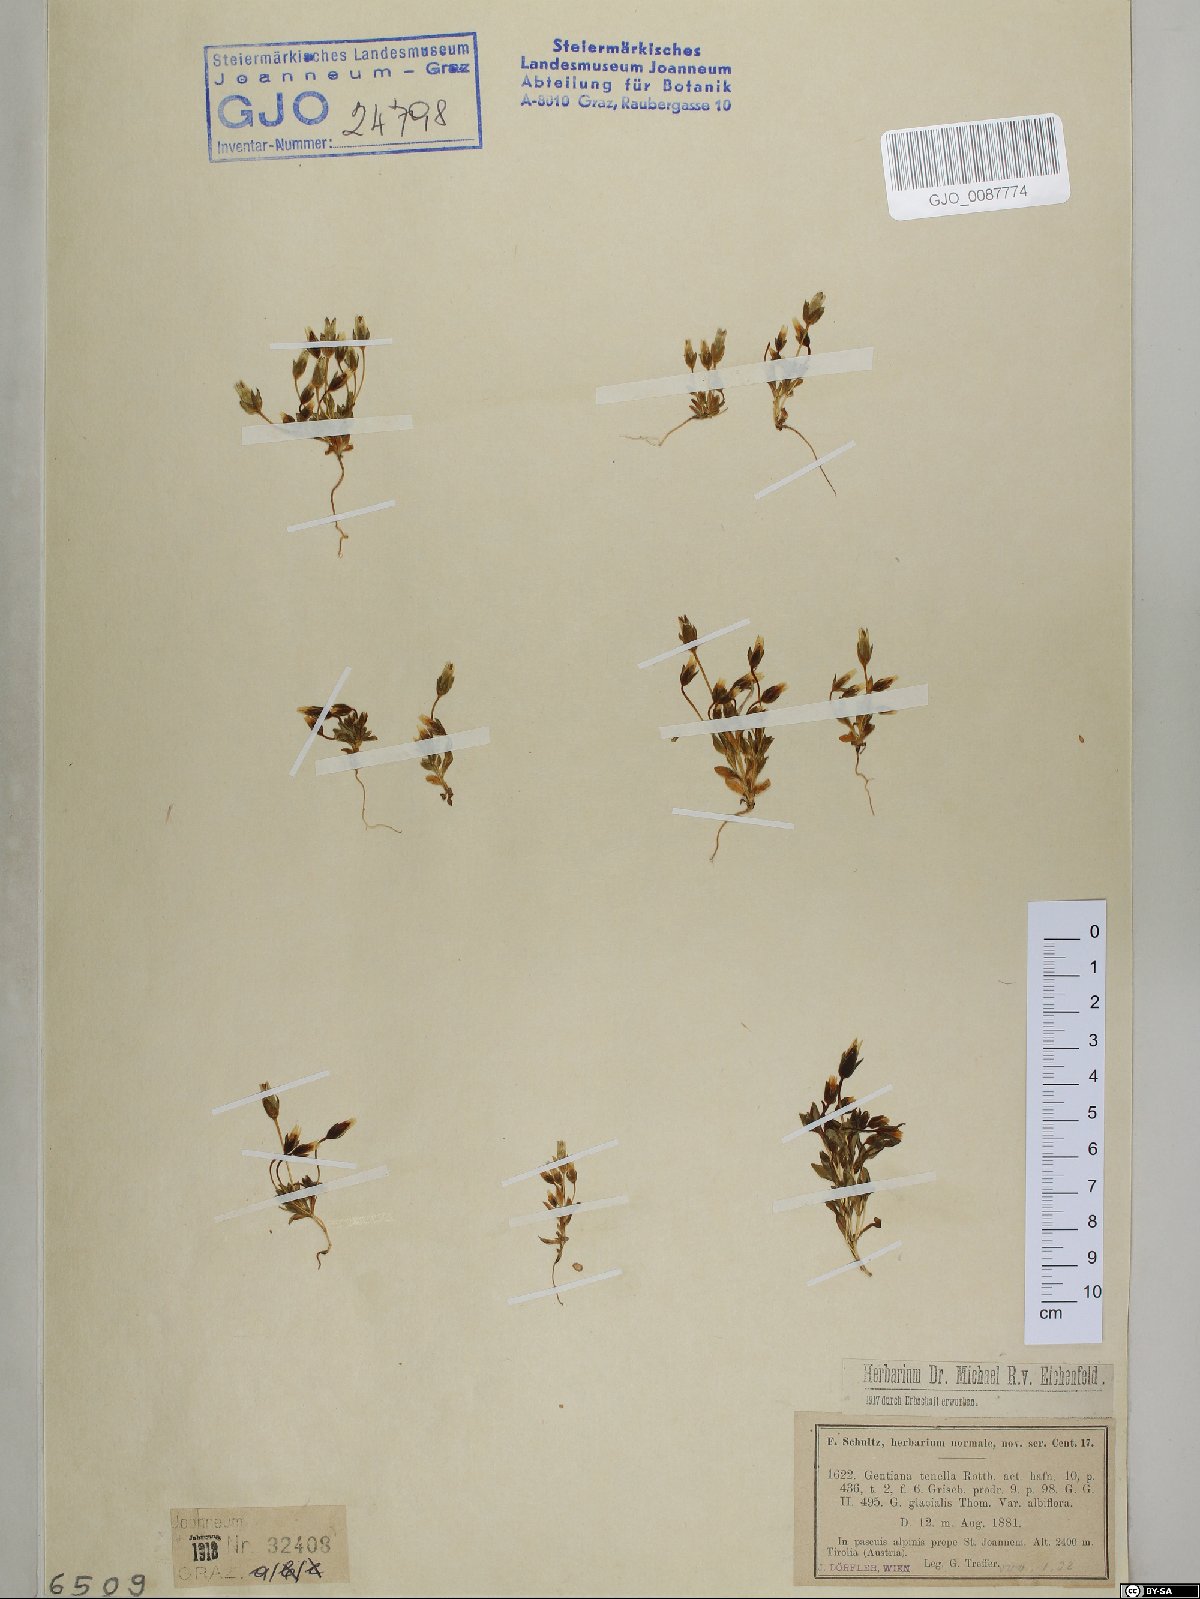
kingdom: Plantae
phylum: Tracheophyta
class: Magnoliopsida
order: Gentianales
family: Gentianaceae
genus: Comastoma
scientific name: Comastoma tenellum
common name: Dane's dwarf gentian
